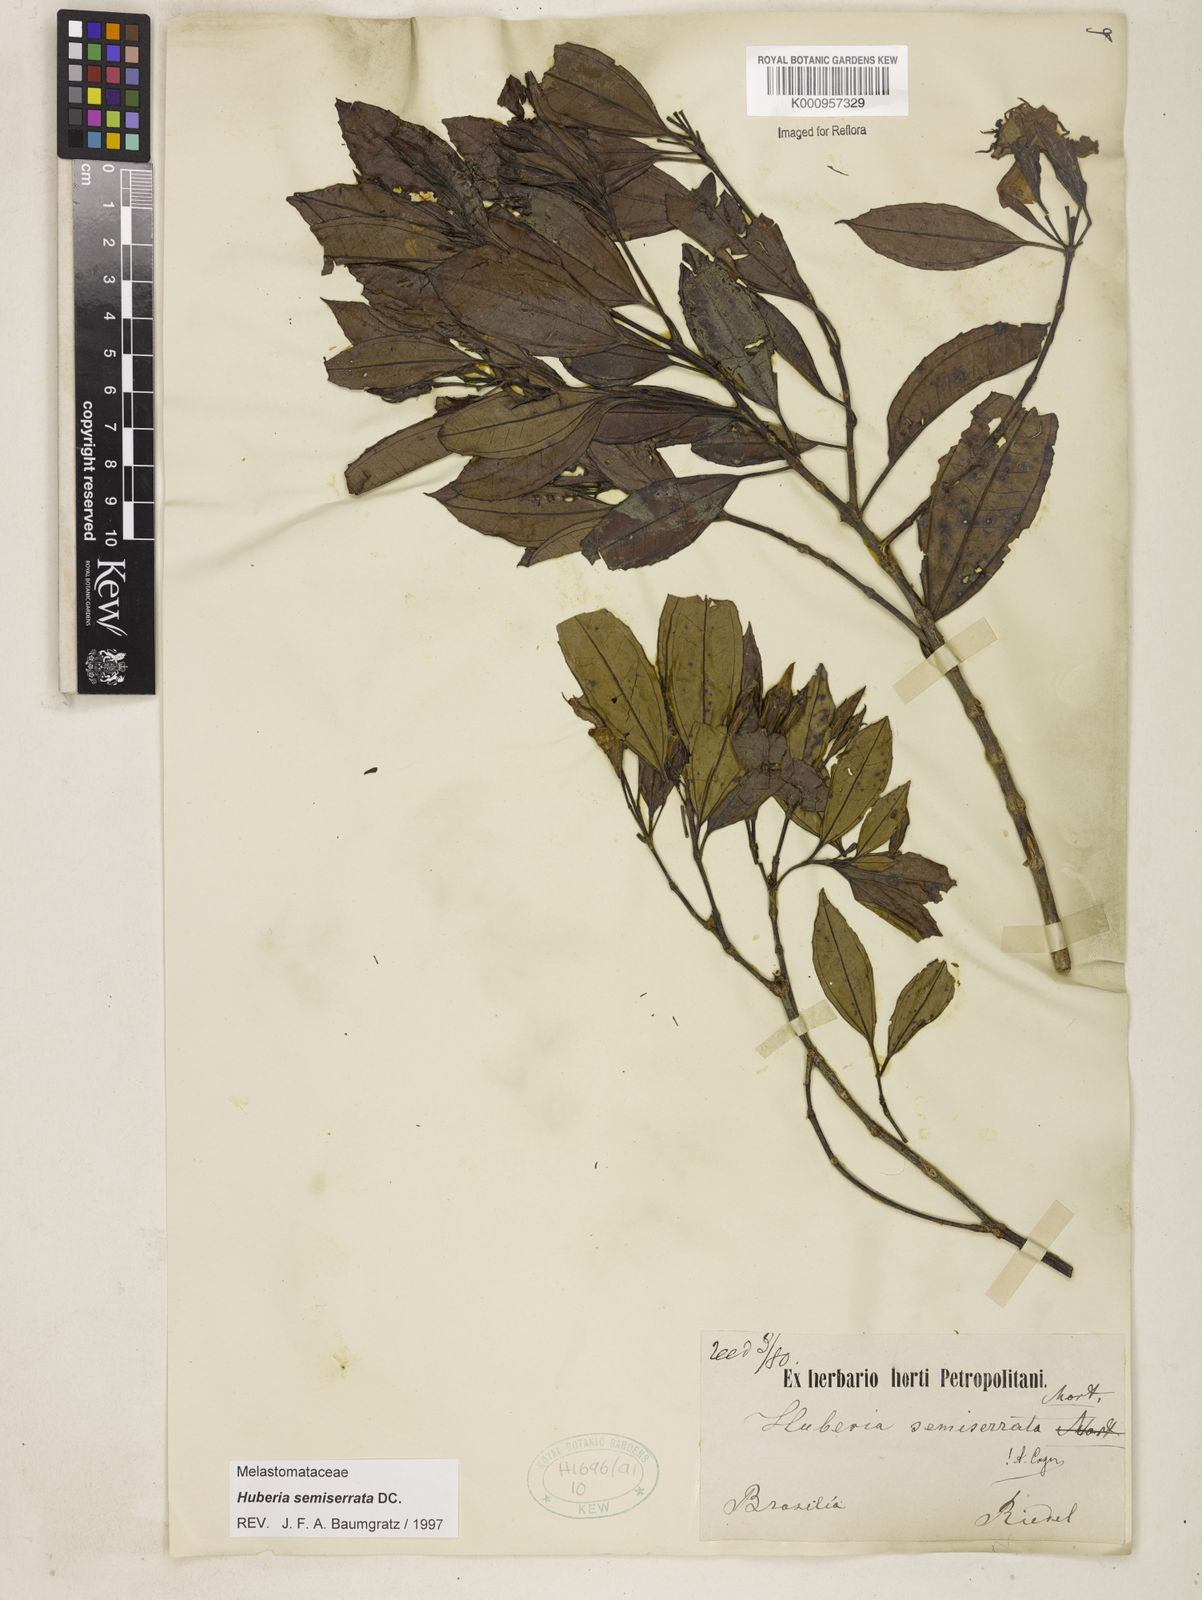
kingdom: Plantae
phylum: Tracheophyta
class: Magnoliopsida
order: Myrtales
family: Melastomataceae
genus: Huberia
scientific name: Huberia semiserrata
